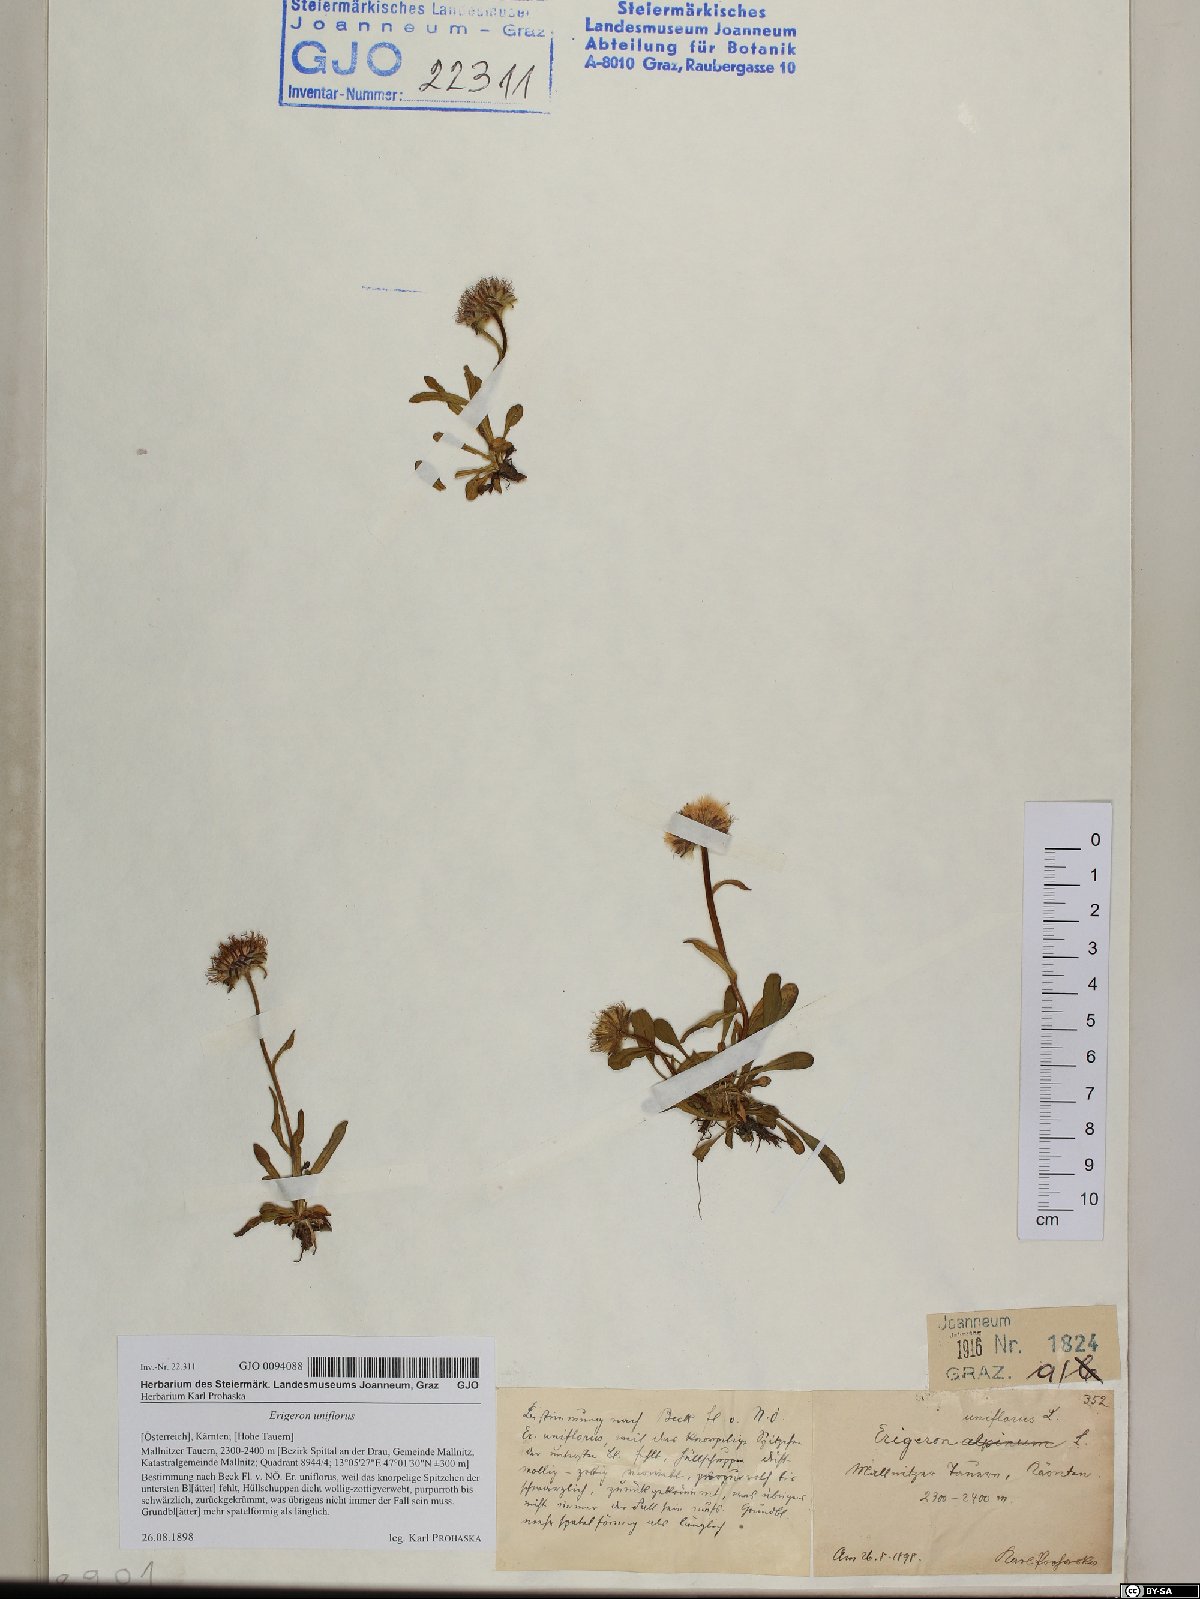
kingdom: Plantae
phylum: Tracheophyta
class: Magnoliopsida
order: Asterales
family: Asteraceae
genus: Erigeron
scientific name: Erigeron uniflorus
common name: Northern daisy
